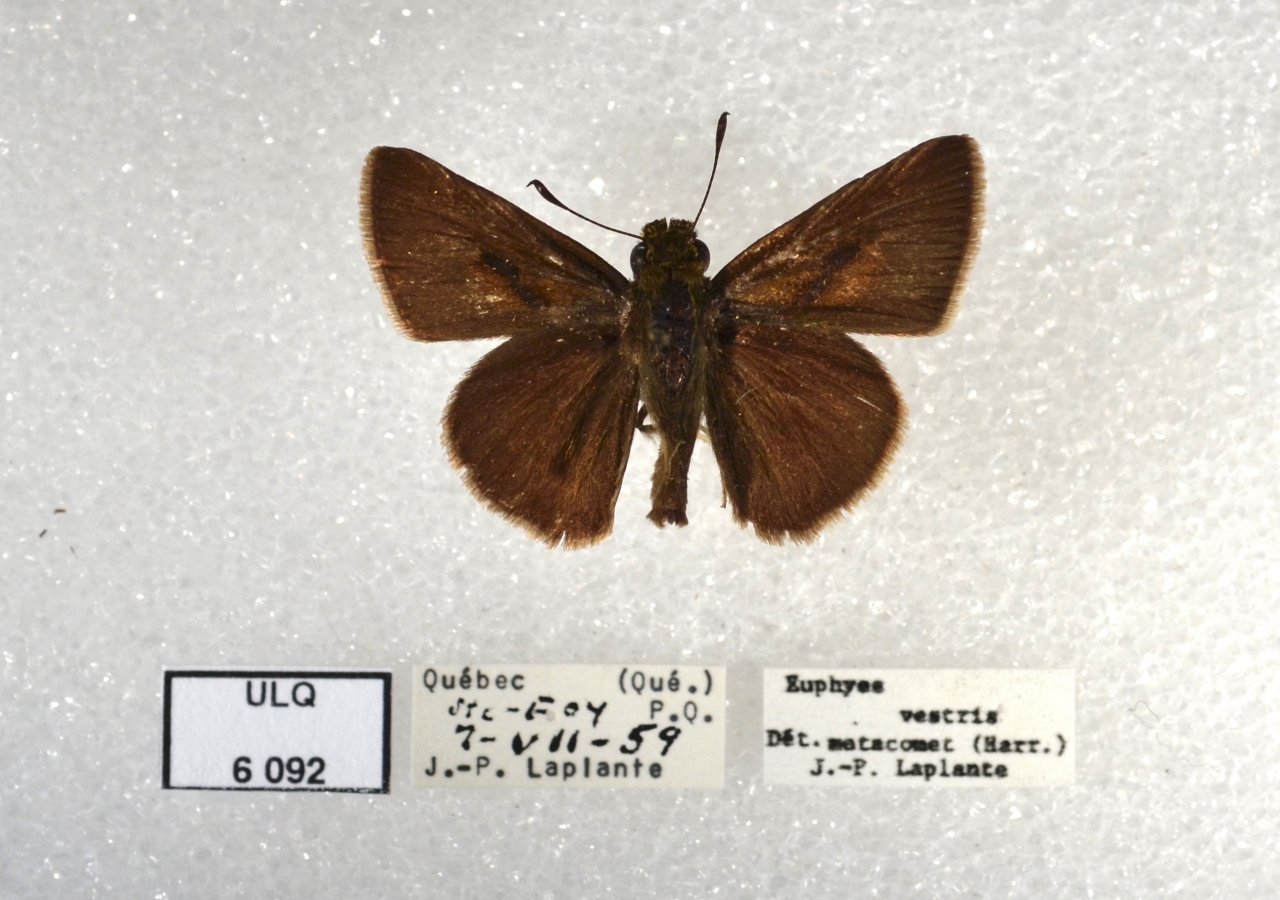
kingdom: Animalia
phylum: Arthropoda
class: Insecta
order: Lepidoptera
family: Hesperiidae
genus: Euphyes
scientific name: Euphyes vestris
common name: Dun Skipper
